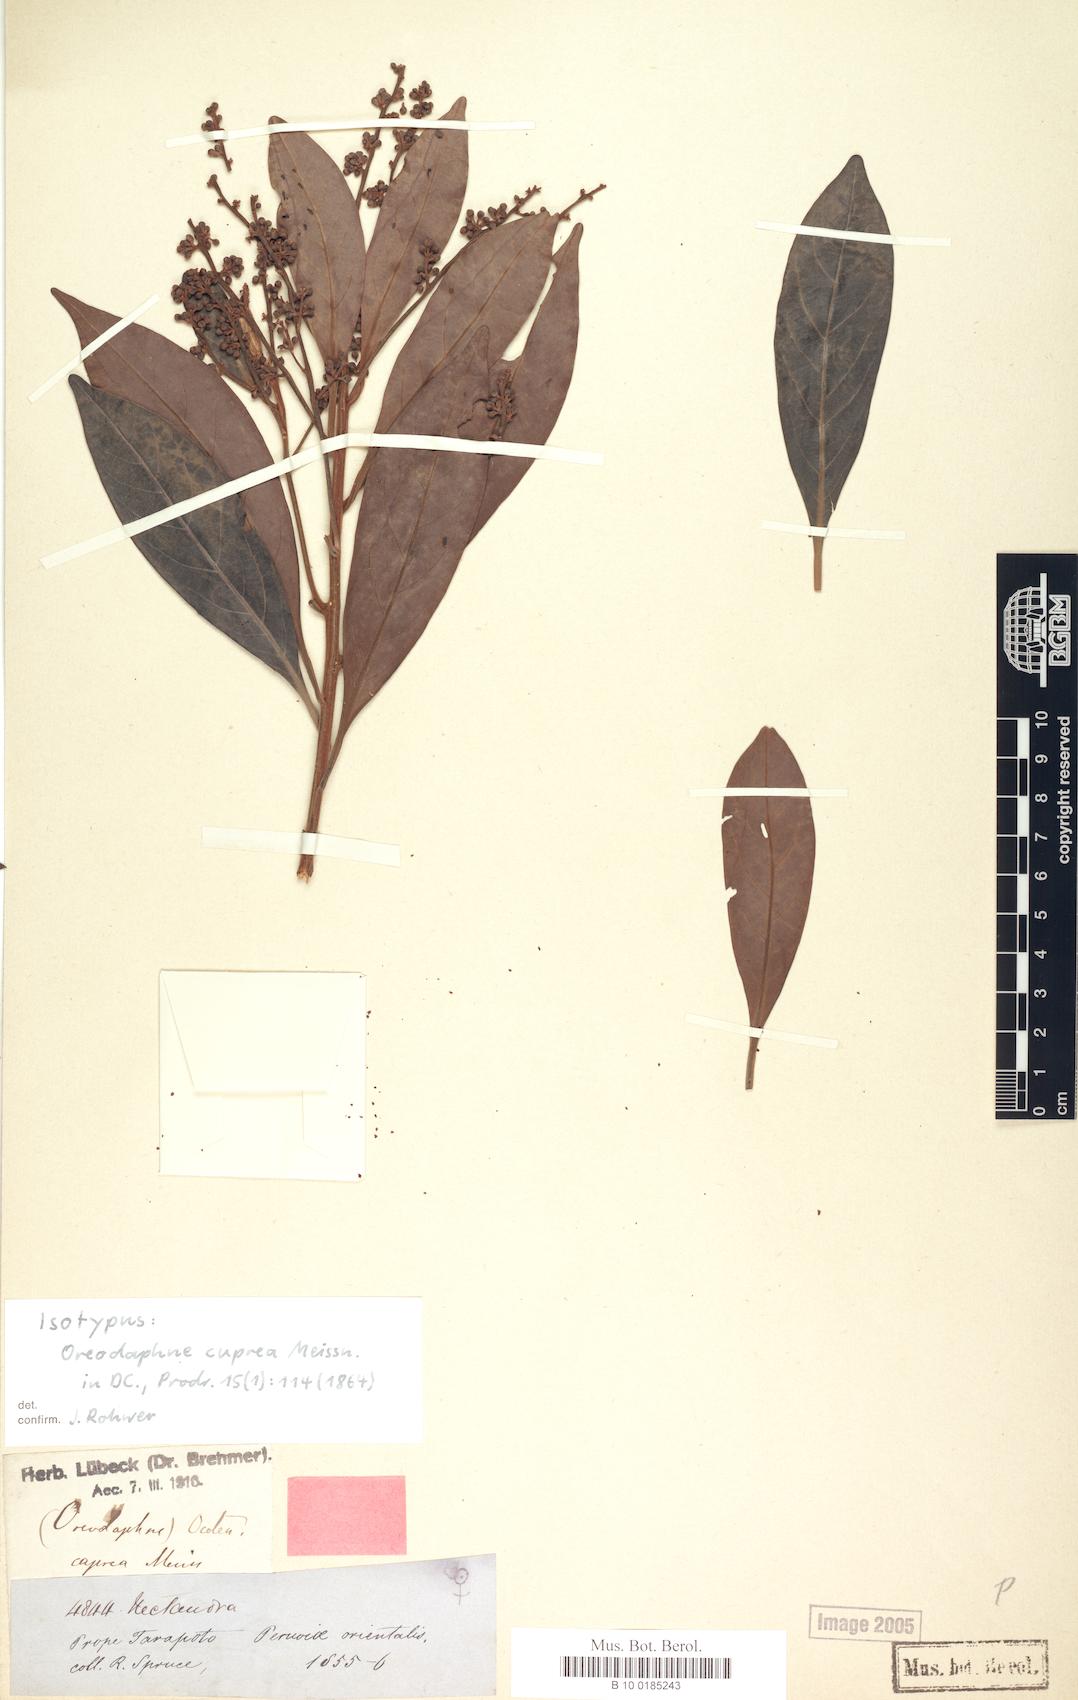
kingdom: Plantae
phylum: Tracheophyta
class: Magnoliopsida
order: Laurales
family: Lauraceae
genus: Ocotea
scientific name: Ocotea oblonga
